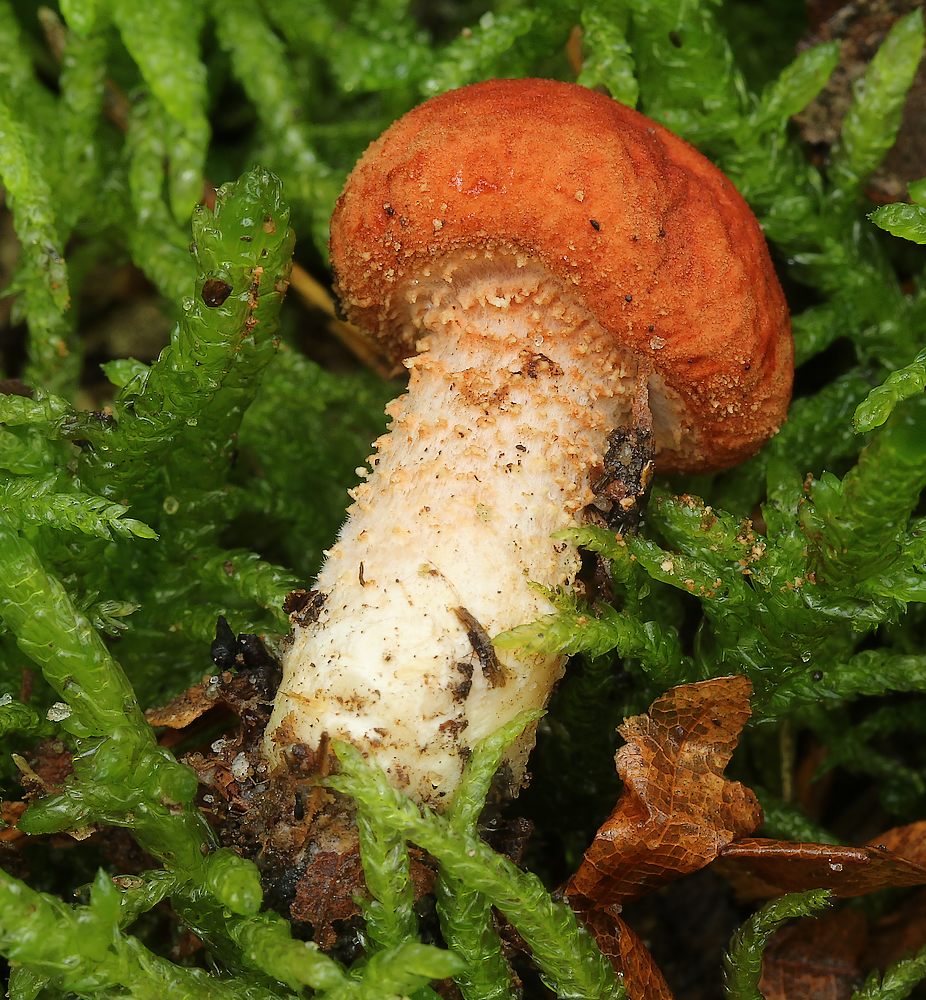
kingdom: Fungi
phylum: Basidiomycota
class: Agaricomycetes
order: Agaricales
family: Agaricaceae
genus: Cystodermella
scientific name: Cystodermella cinnabarina
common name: cinnober-grynhat
